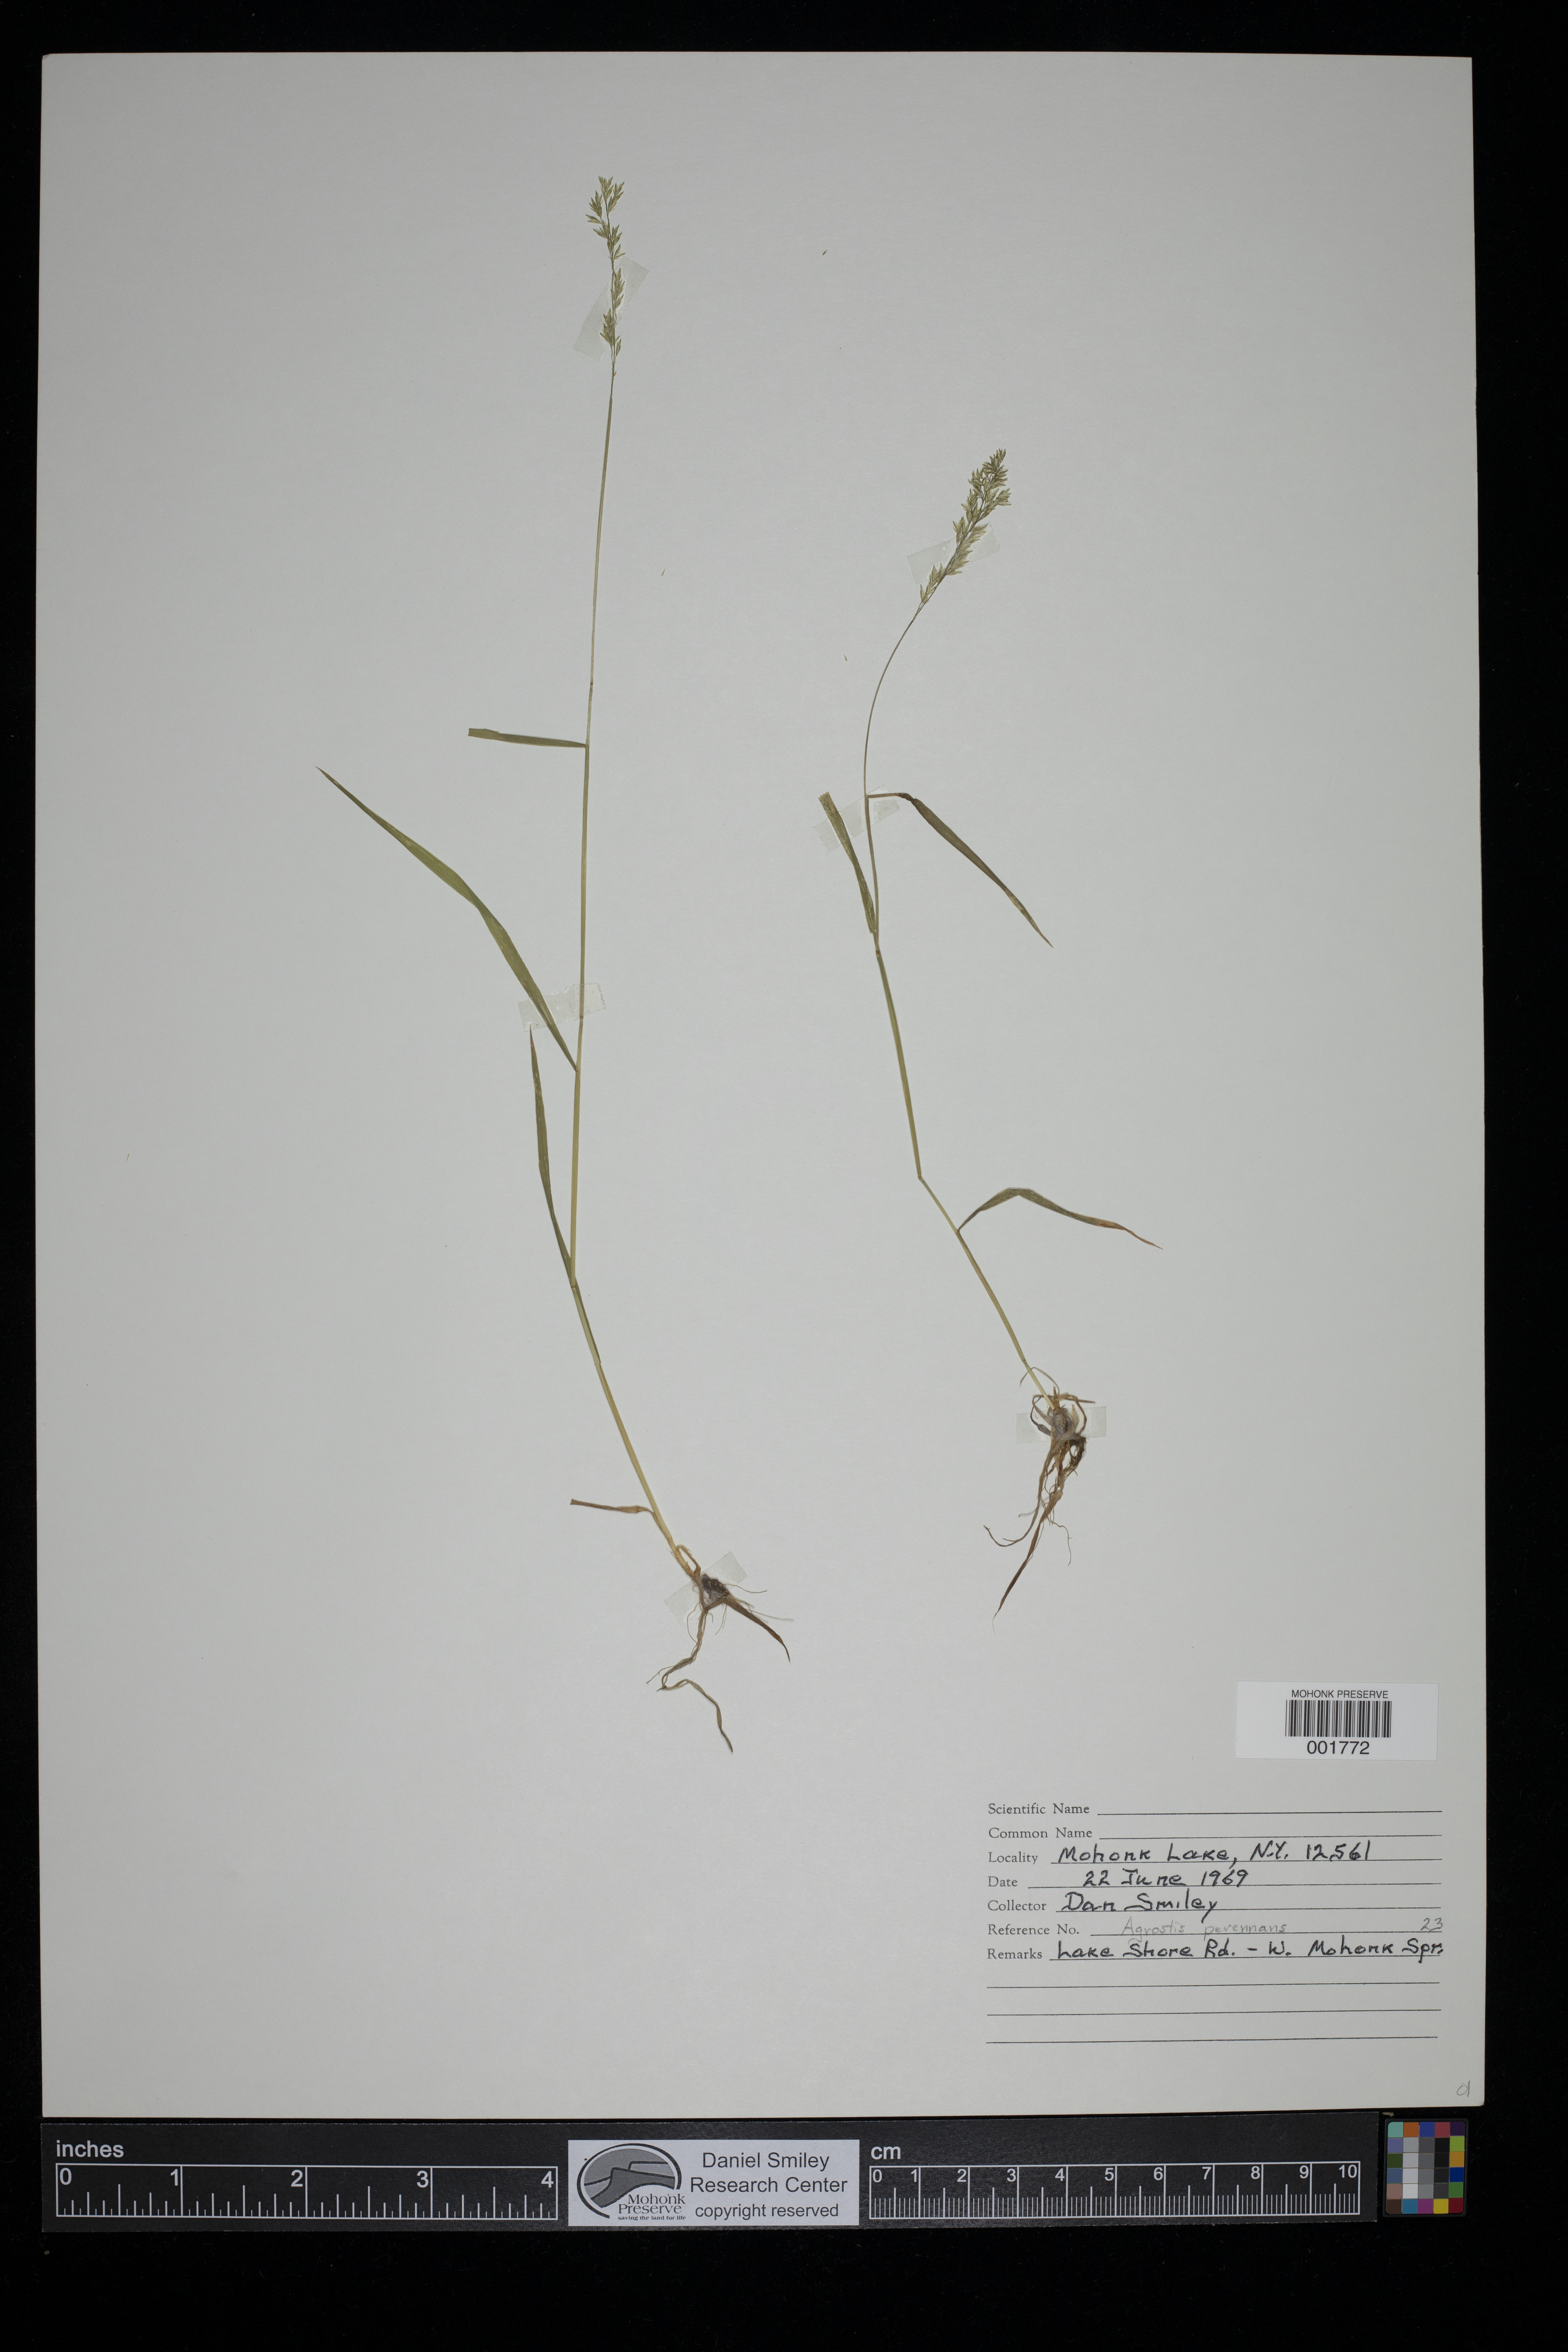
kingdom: Plantae
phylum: Tracheophyta
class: Liliopsida
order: Poales
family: Poaceae
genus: Agrostis
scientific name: Agrostis perennans
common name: Autumn bent
